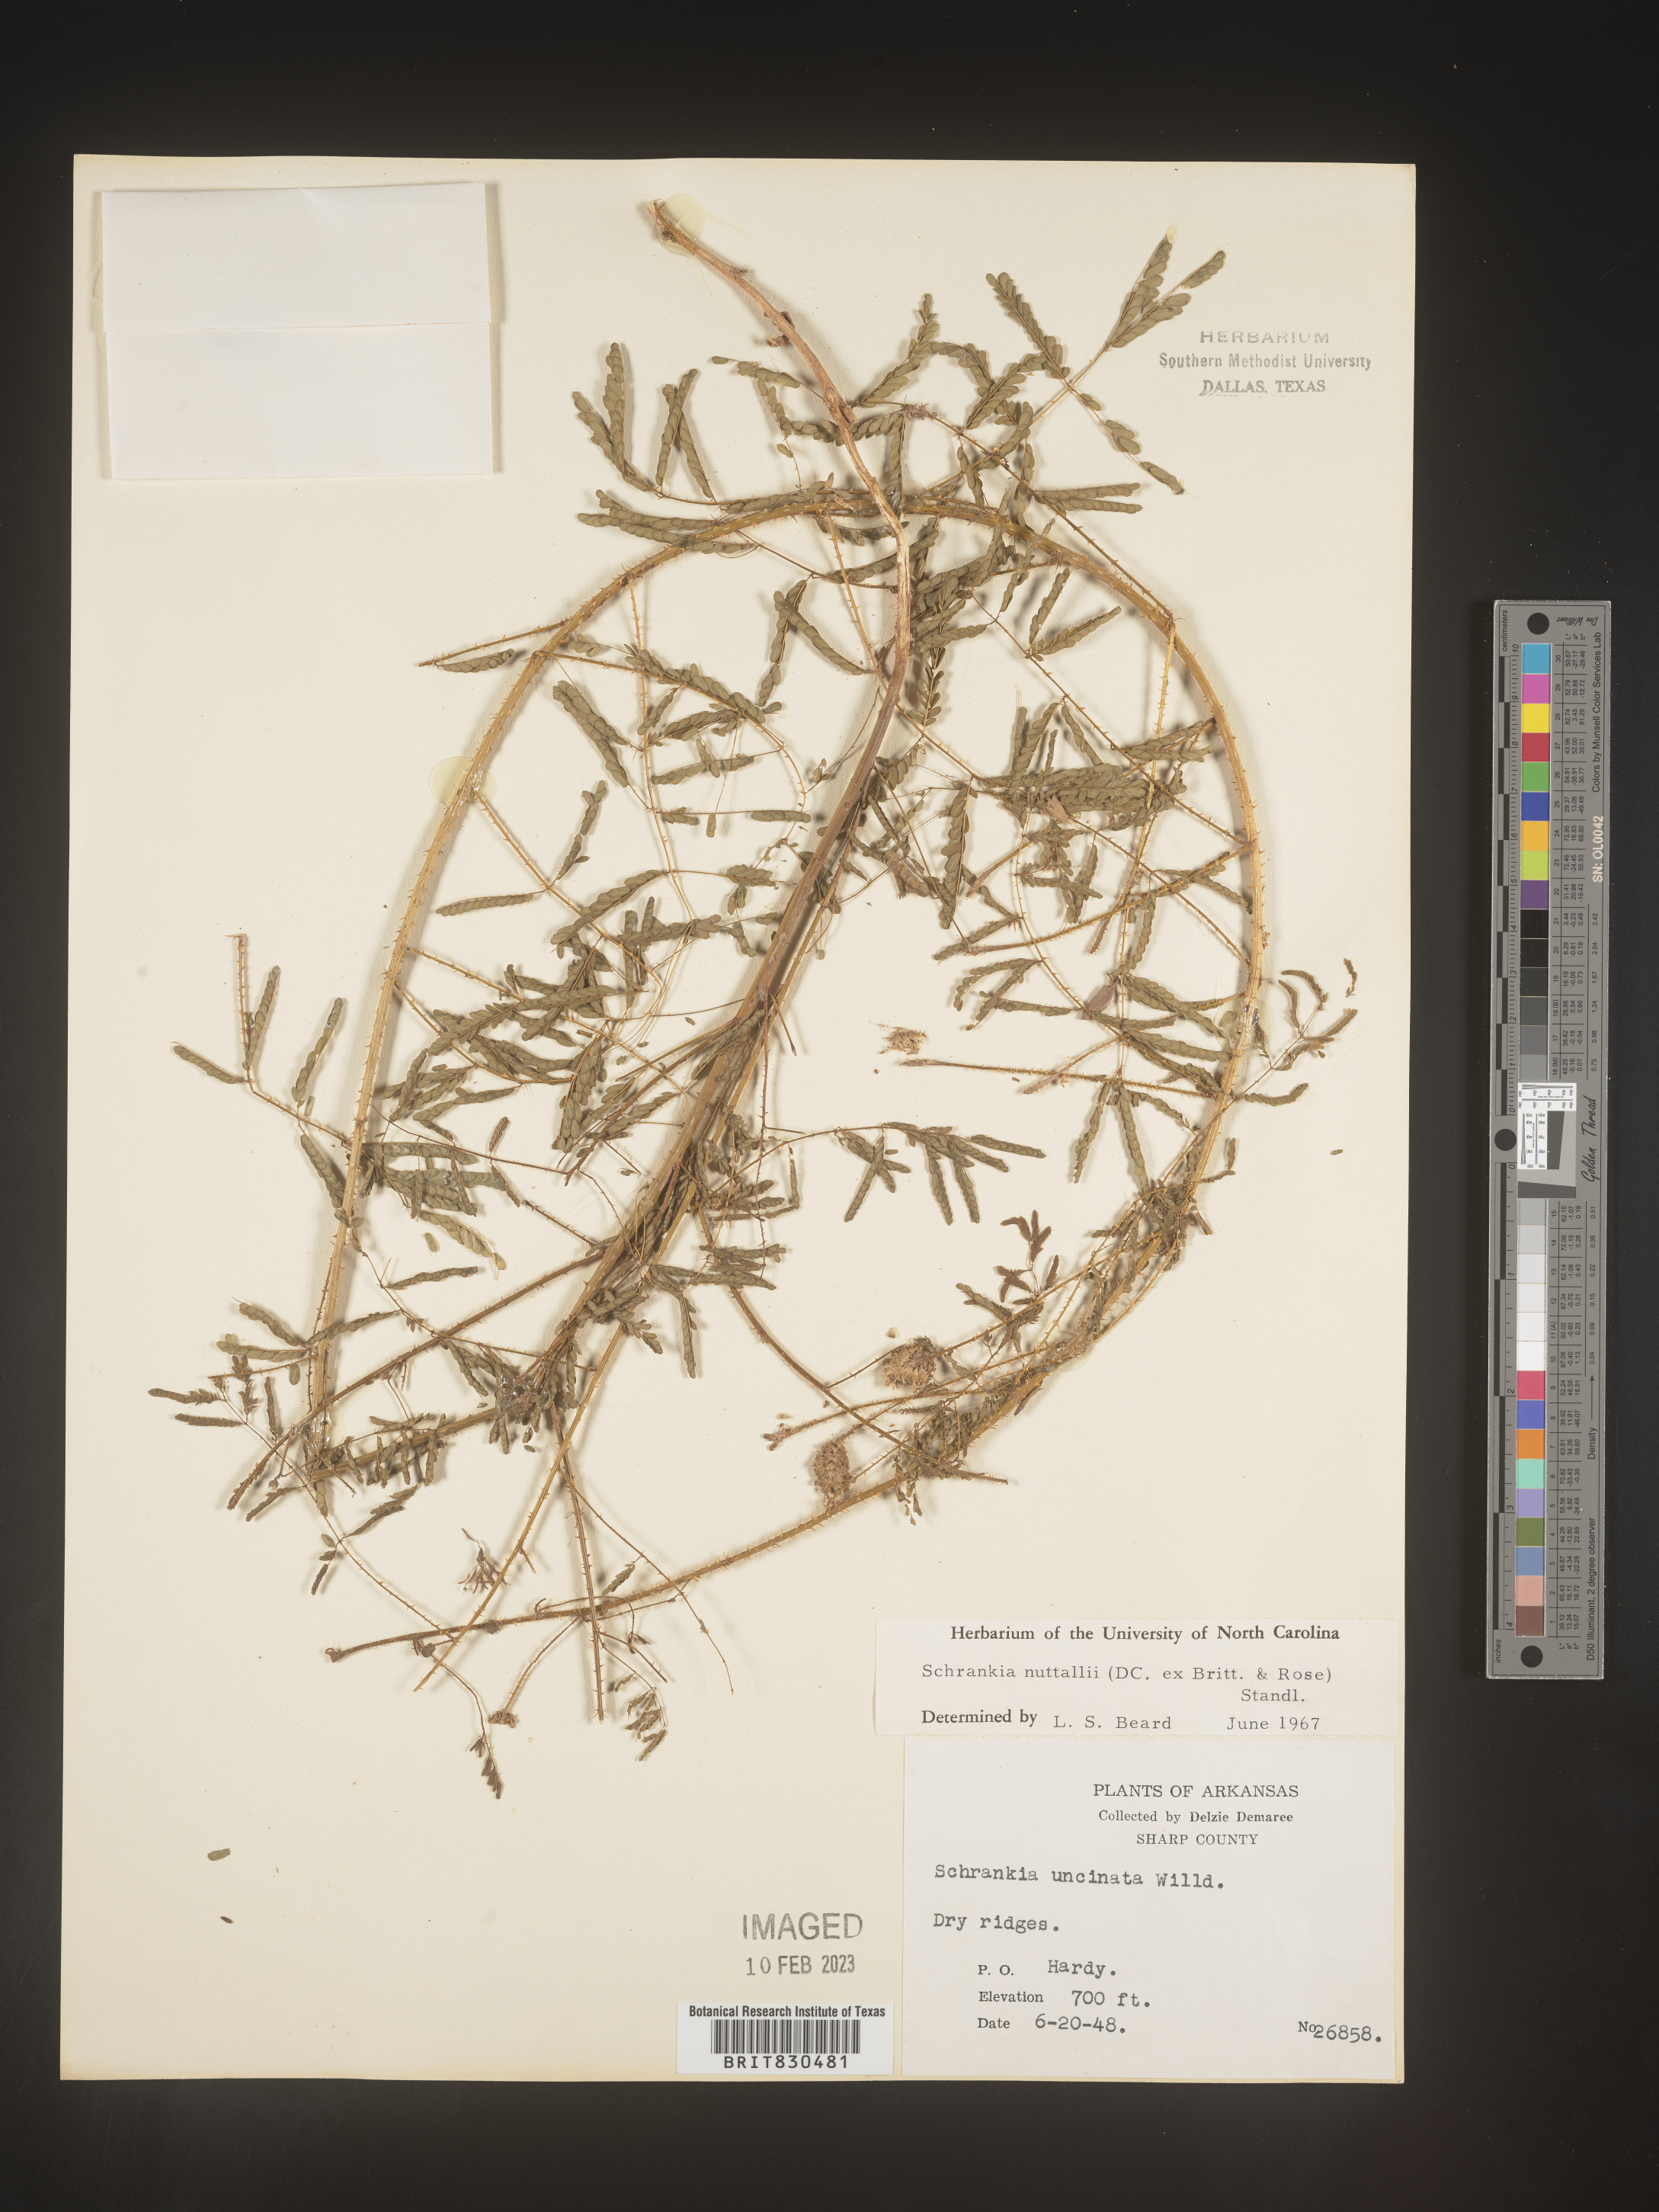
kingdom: Plantae
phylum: Tracheophyta
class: Magnoliopsida
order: Fabales
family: Fabaceae
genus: Mimosa
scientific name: Mimosa quadrivalvis
